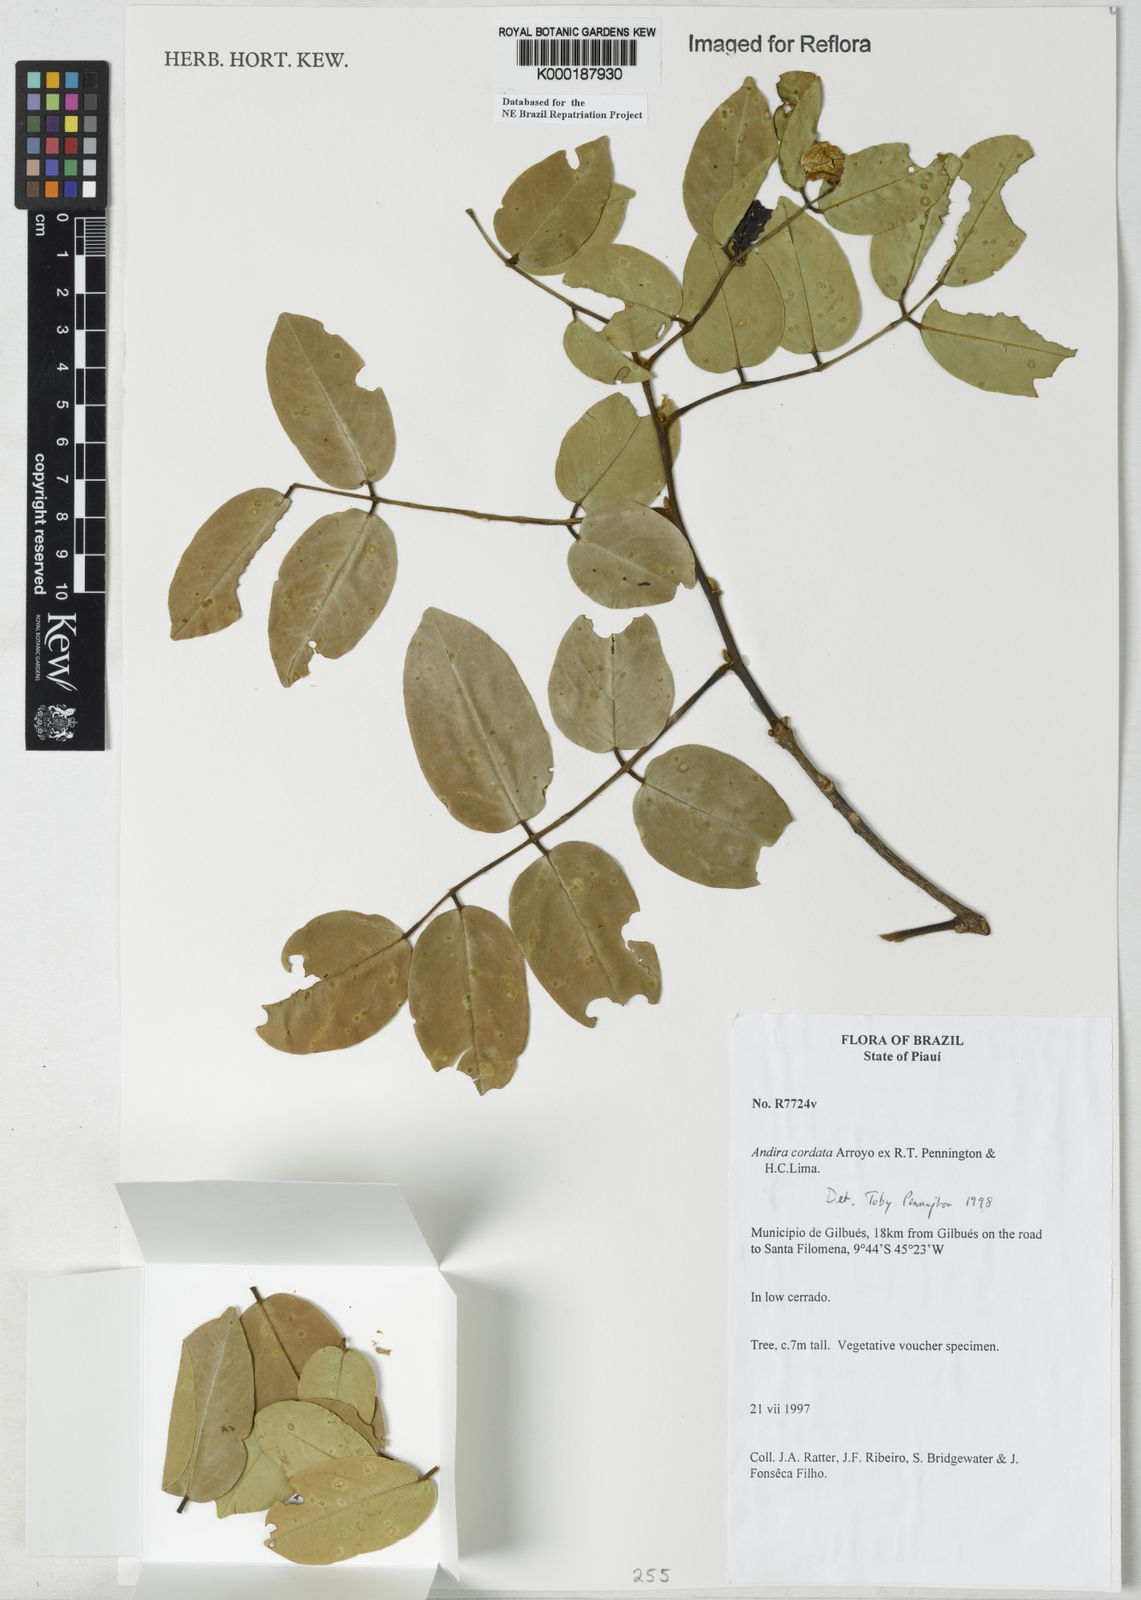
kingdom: Plantae
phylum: Tracheophyta
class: Magnoliopsida
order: Fabales
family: Fabaceae
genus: Andira
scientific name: Andira cordata
